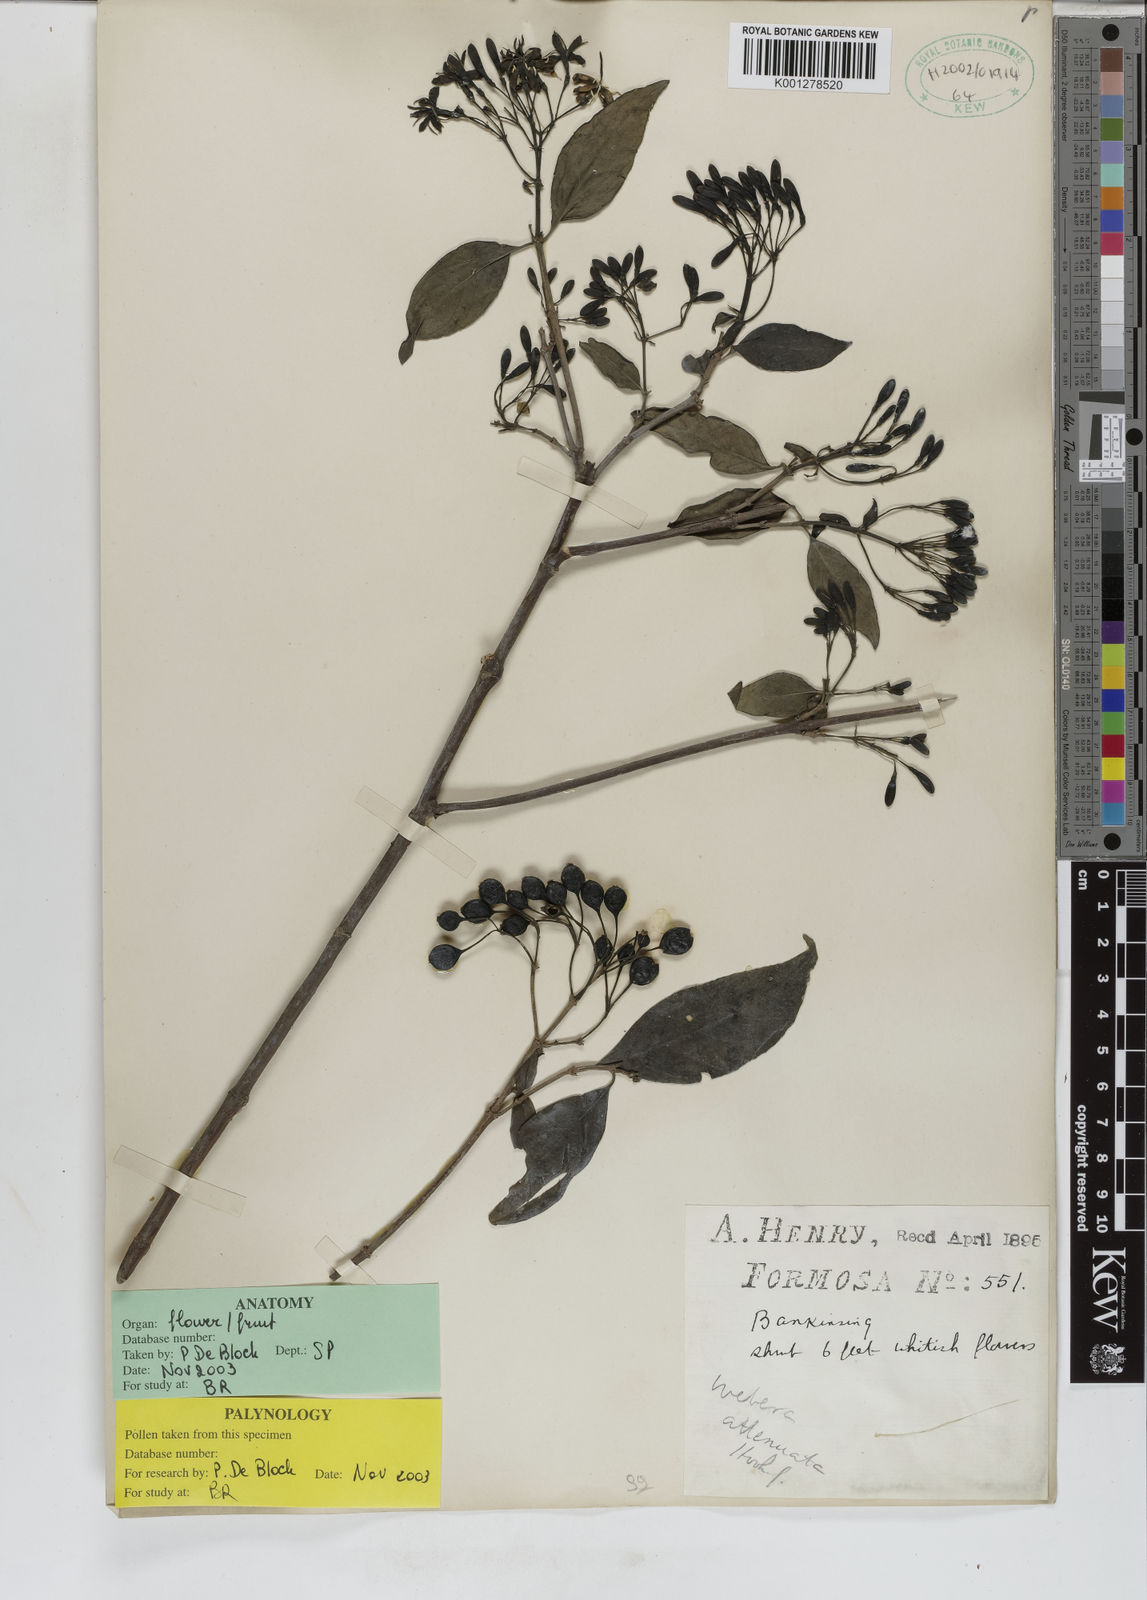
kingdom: Plantae
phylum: Tracheophyta
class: Magnoliopsida
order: Gentianales
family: Rubiaceae
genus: Tarenna
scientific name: Tarenna attenuata
